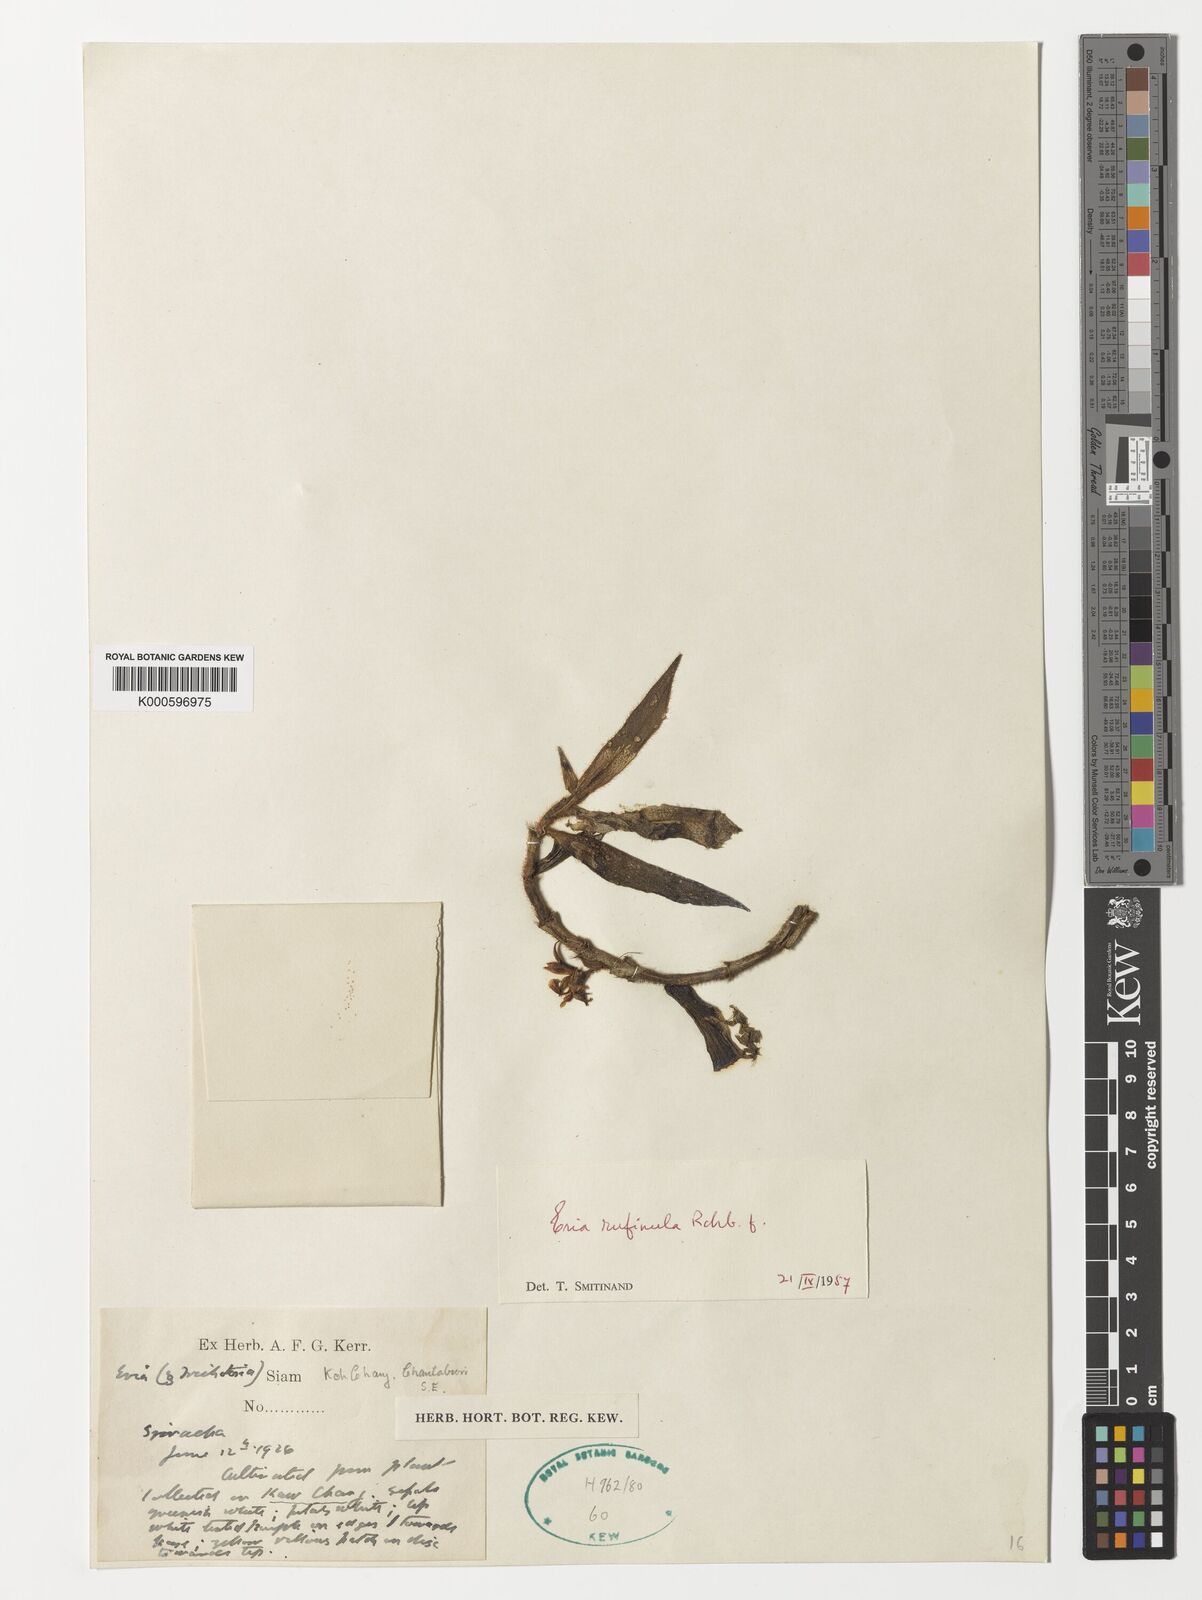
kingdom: Plantae
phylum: Tracheophyta
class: Liliopsida
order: Asparagales
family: Orchidaceae
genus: Trichotosia
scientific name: Trichotosia pulvinata
